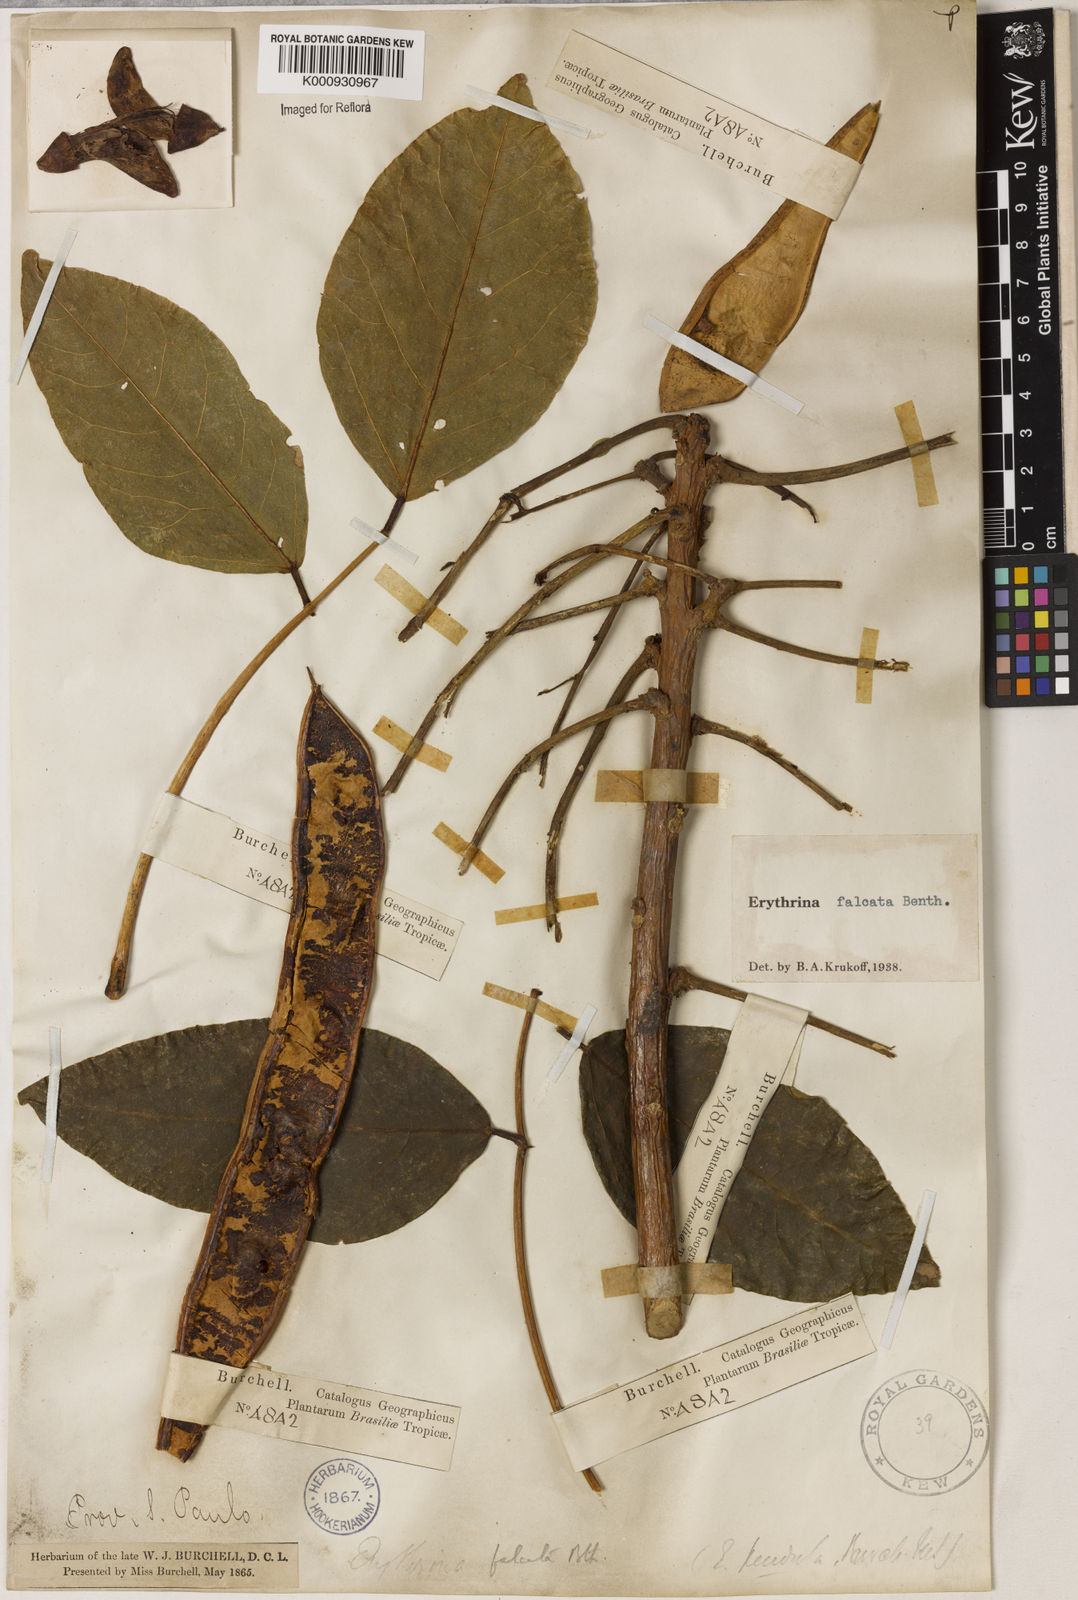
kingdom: Plantae
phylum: Tracheophyta
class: Magnoliopsida
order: Fabales
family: Fabaceae
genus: Erythrina
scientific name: Erythrina falcata
